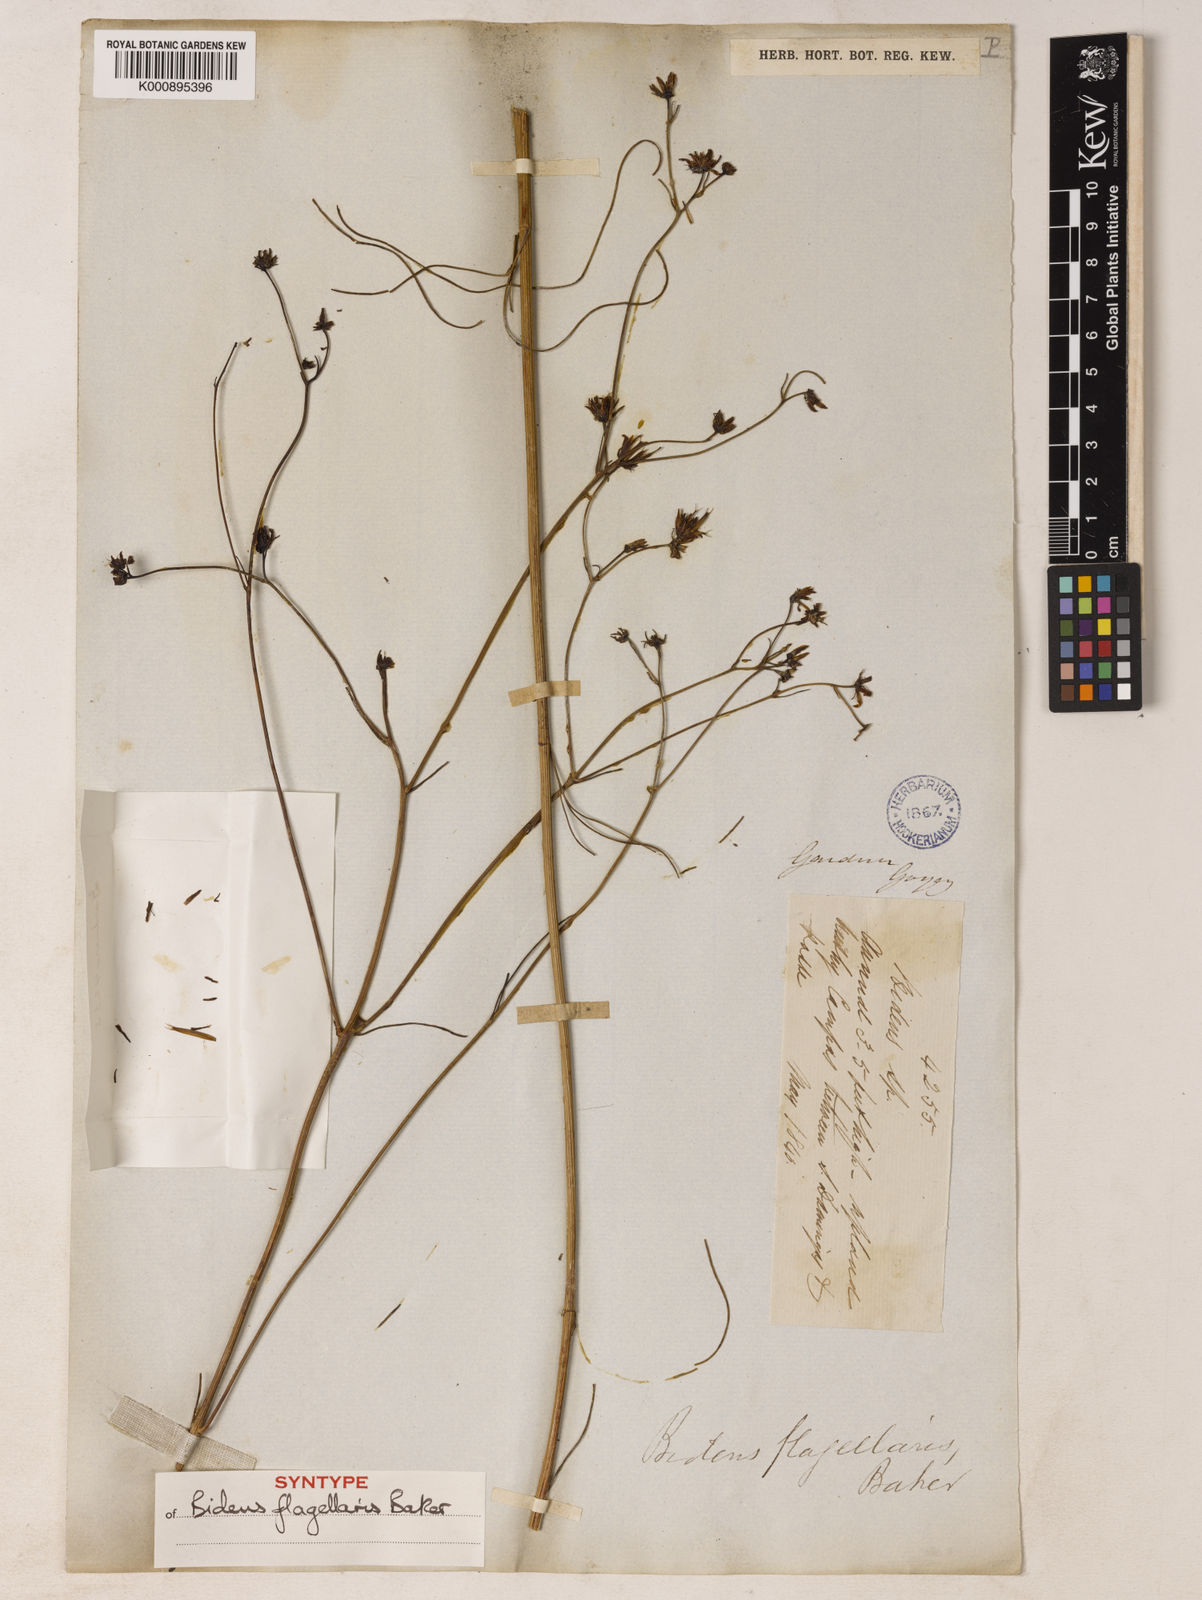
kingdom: Plantae
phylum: Tracheophyta
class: Magnoliopsida
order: Asterales
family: Asteraceae
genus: Bidens
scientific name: Bidens flagellaris
